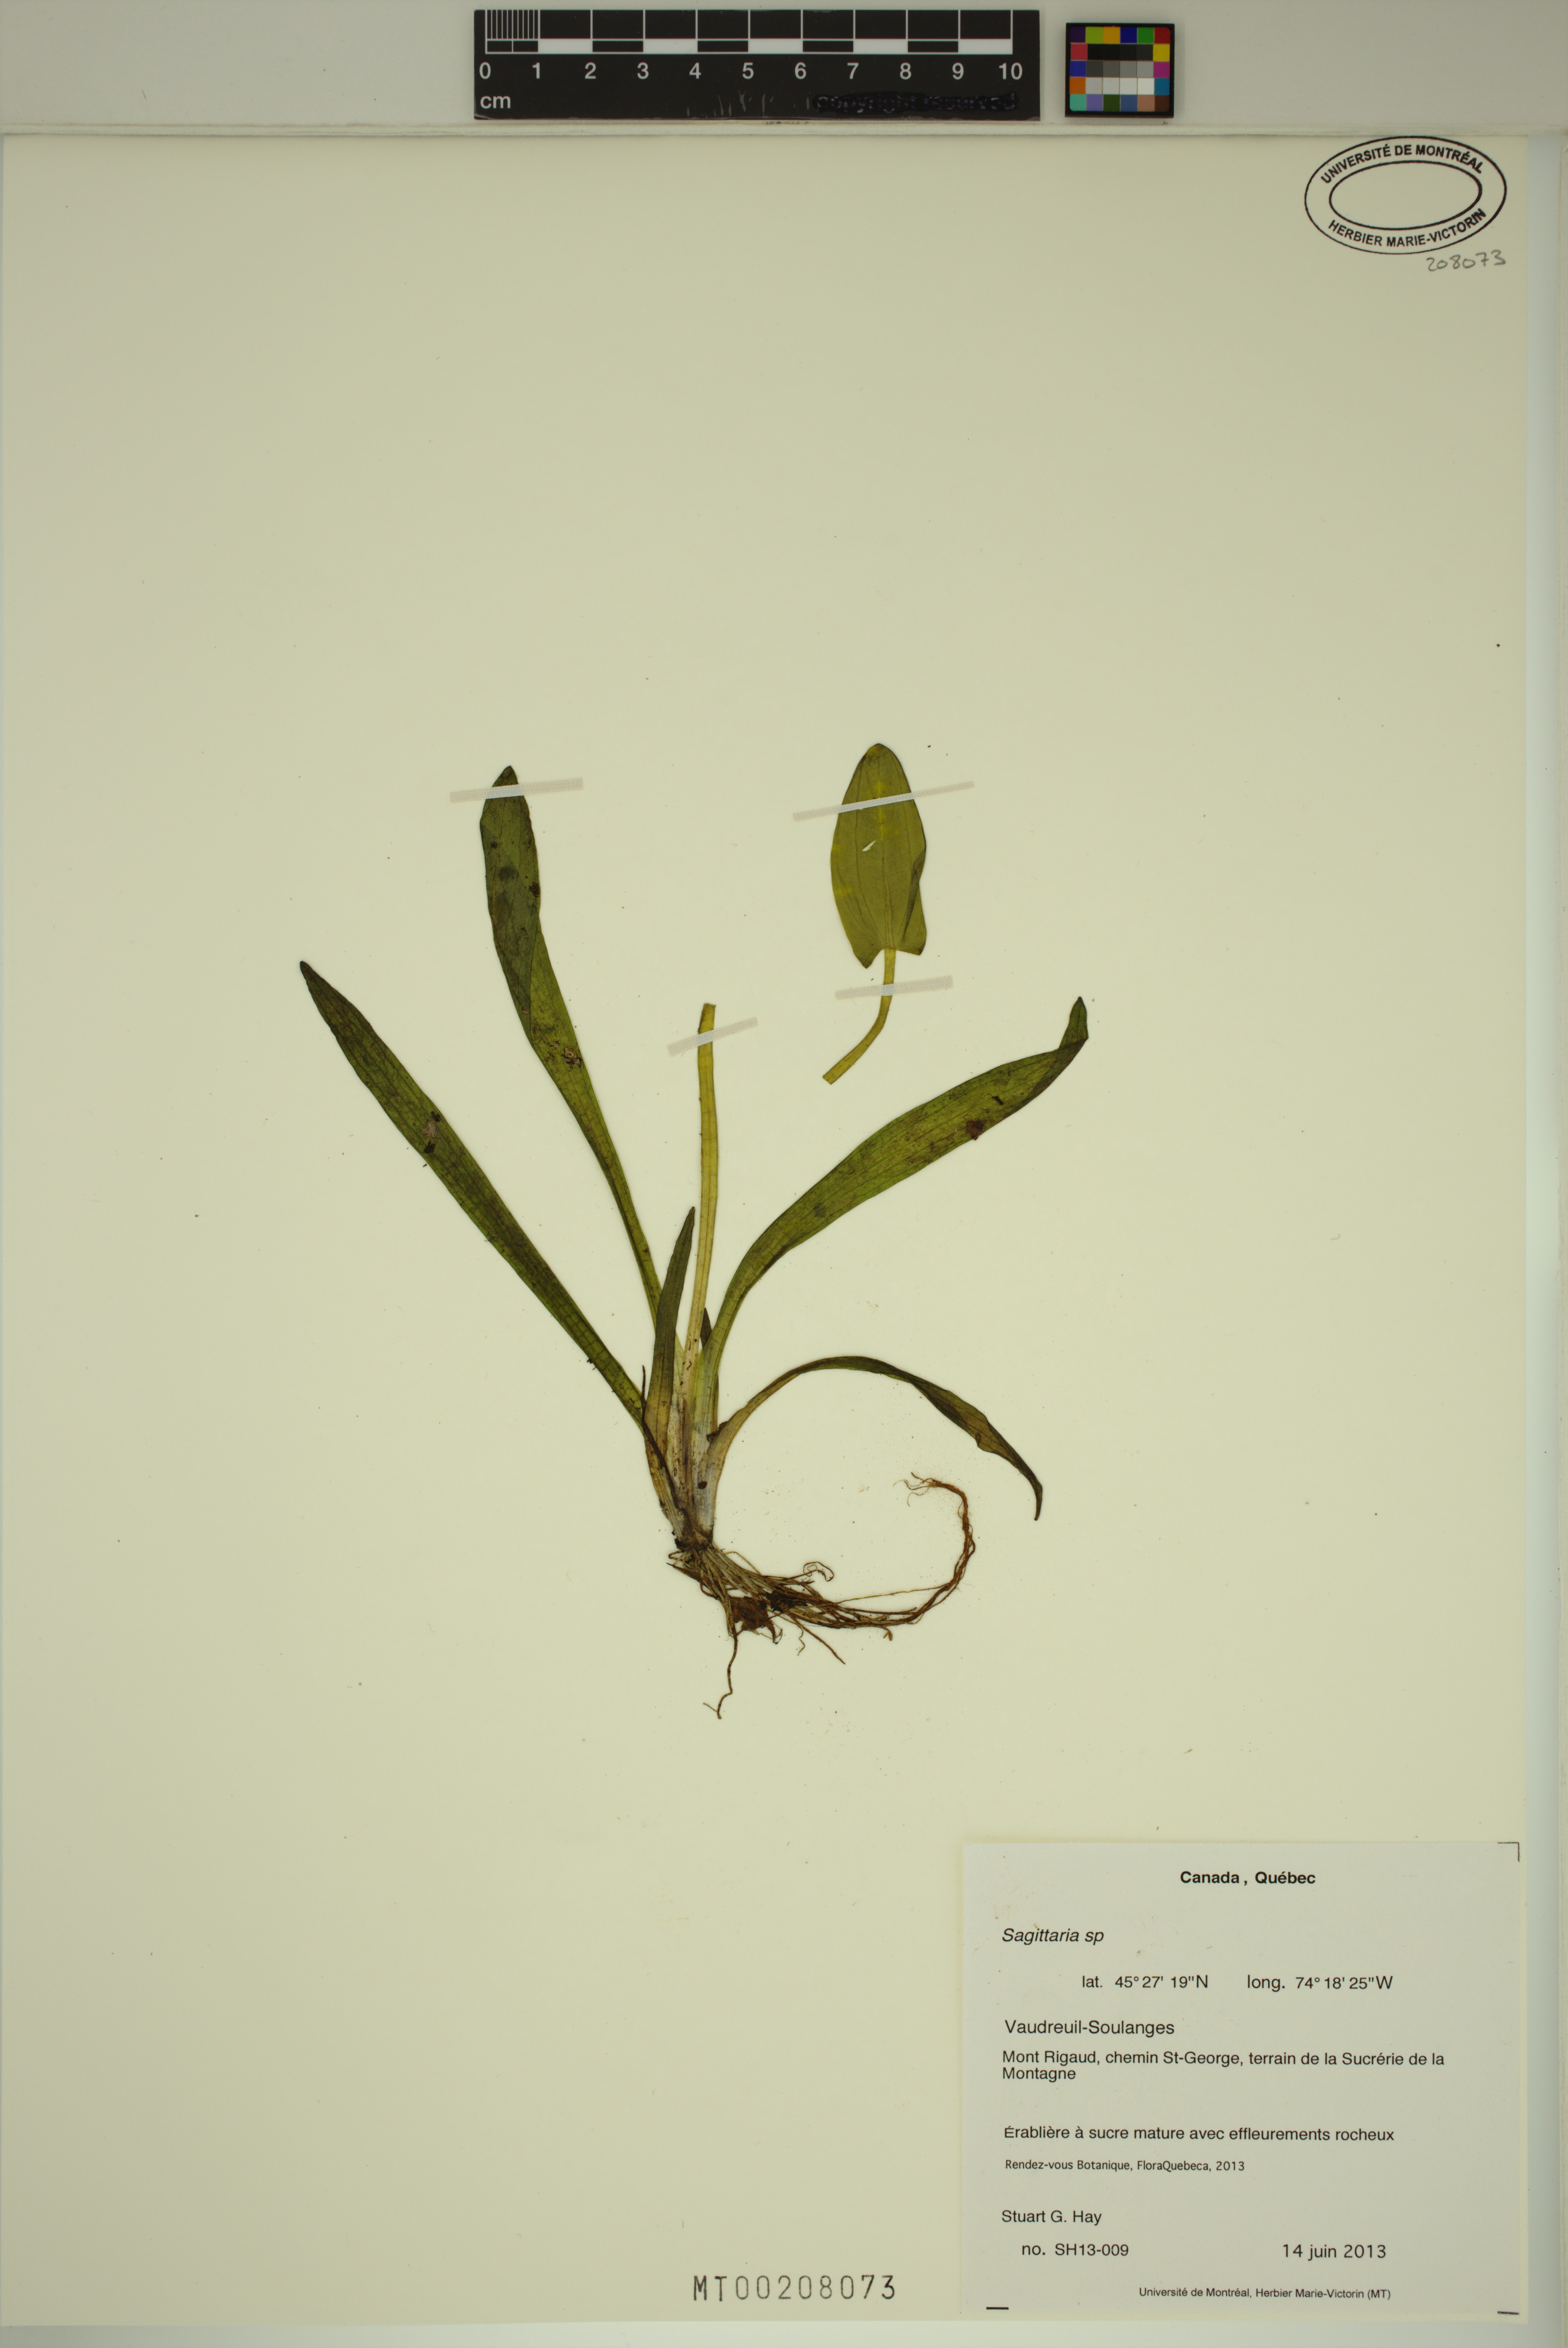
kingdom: Plantae
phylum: Tracheophyta
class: Liliopsida
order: Alismatales
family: Alismataceae
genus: Sagittaria
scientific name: Sagittaria
